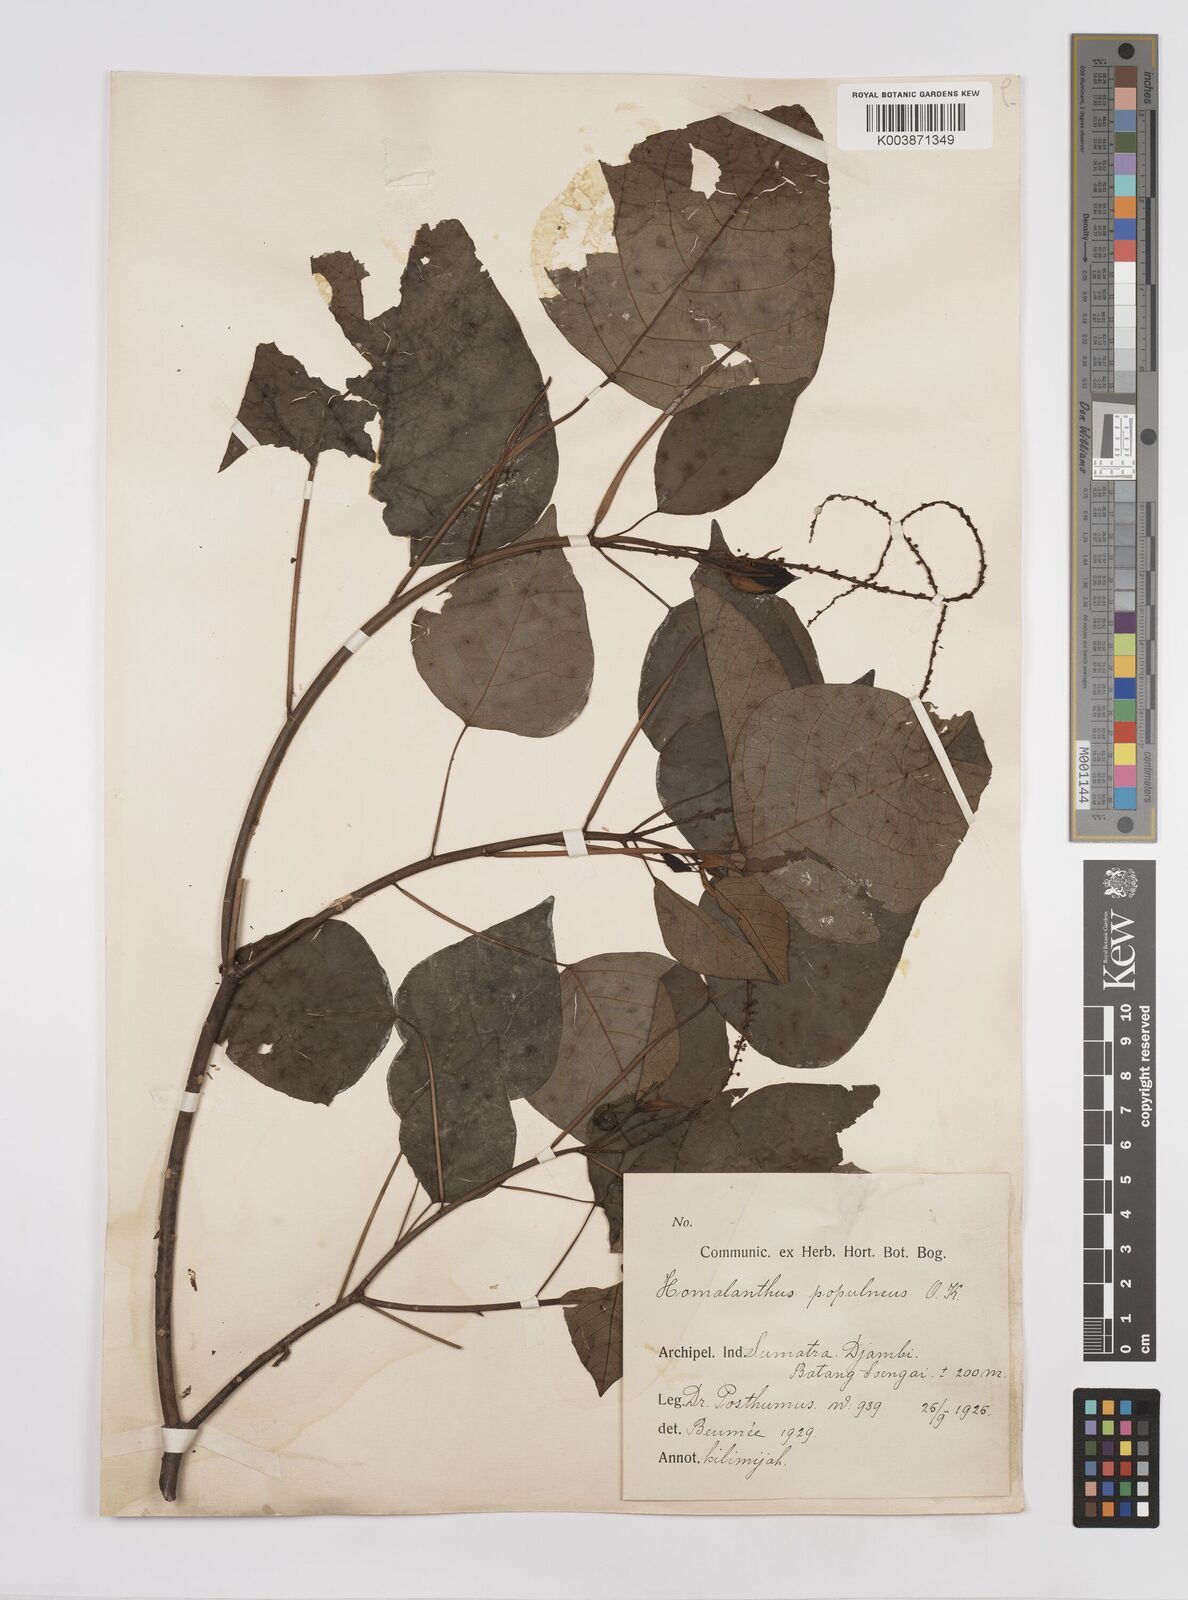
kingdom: Plantae
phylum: Tracheophyta
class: Magnoliopsida
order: Malpighiales
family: Euphorbiaceae
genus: Homalanthus
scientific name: Homalanthus populneus
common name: Spurge
